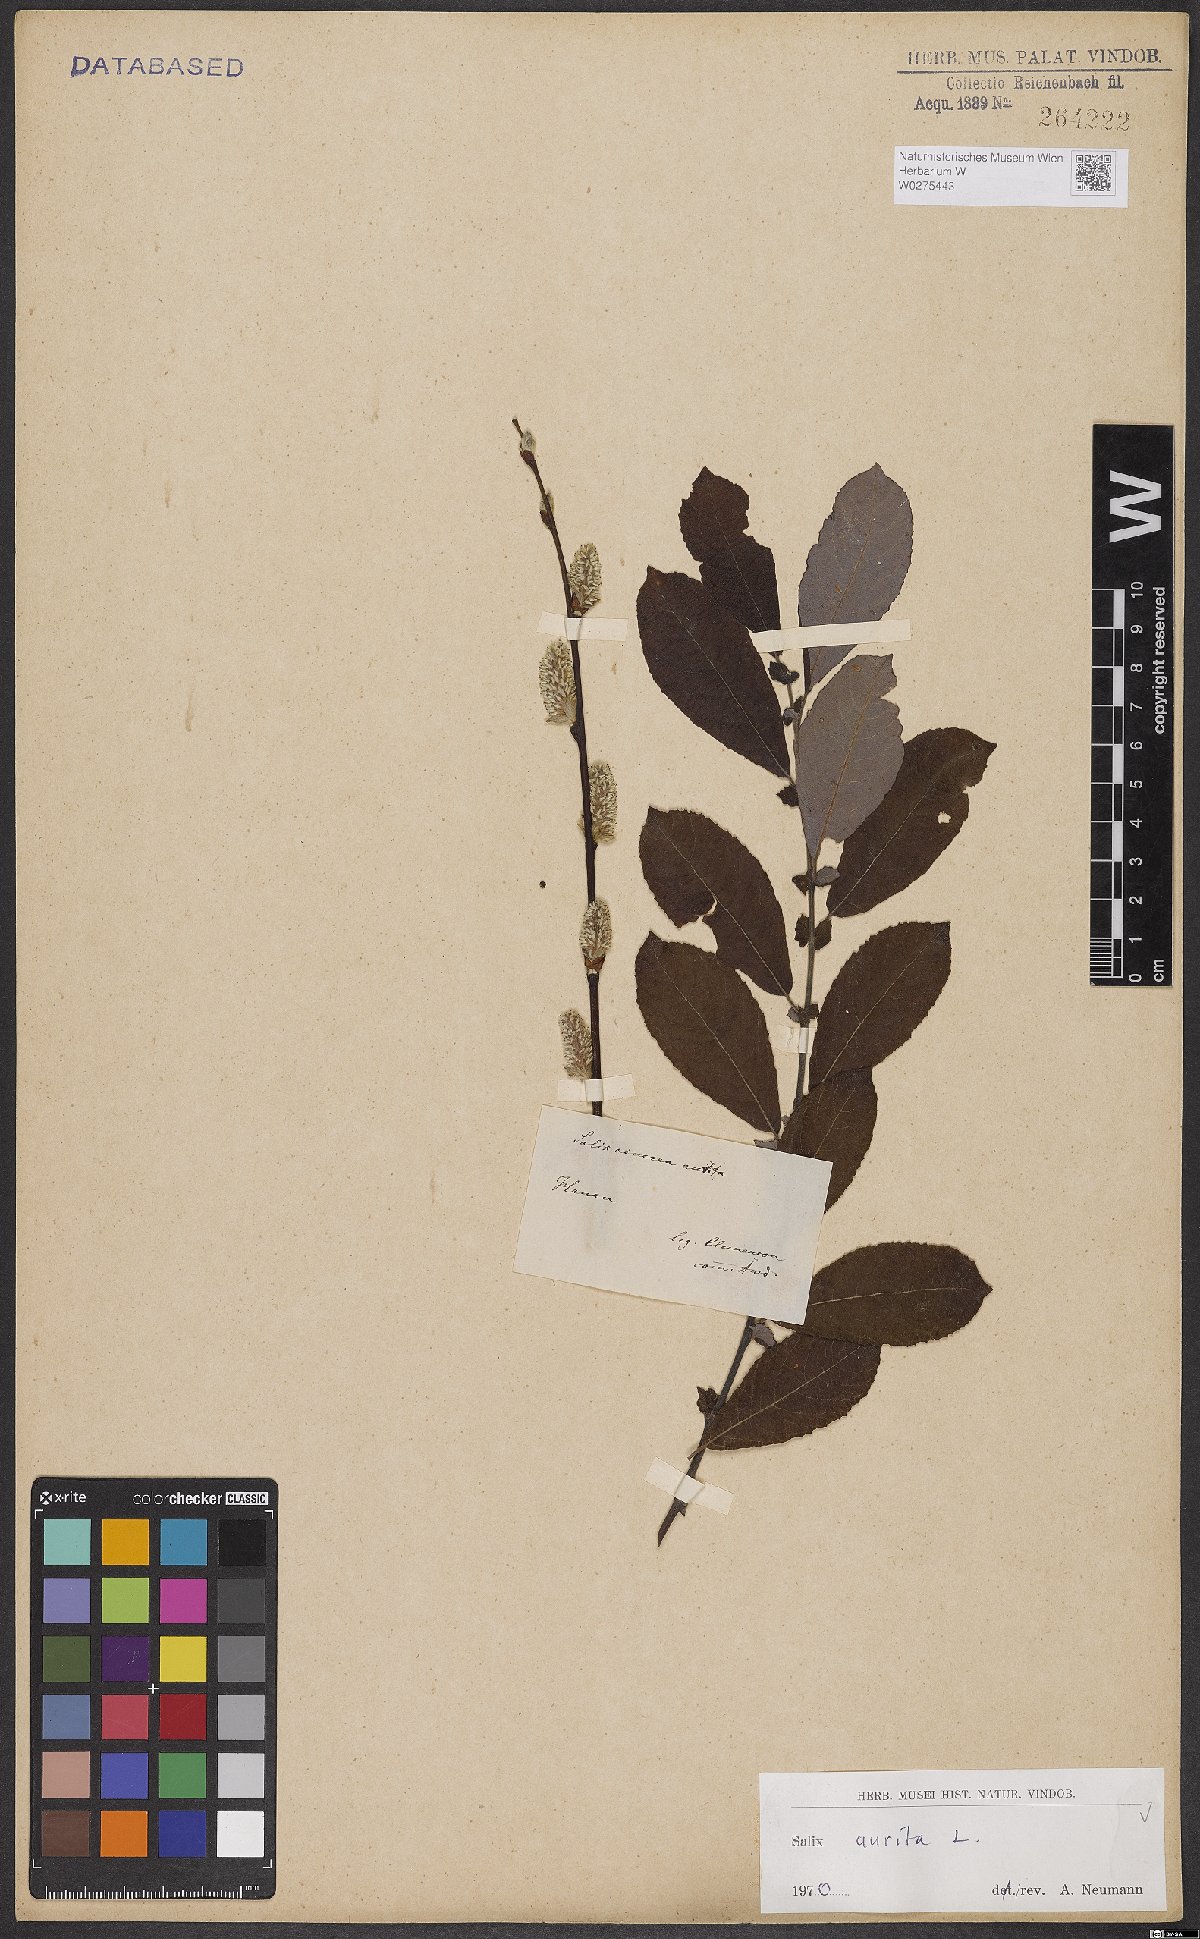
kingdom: Plantae
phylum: Tracheophyta
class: Magnoliopsida
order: Malpighiales
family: Salicaceae
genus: Salix
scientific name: Salix aurita
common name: Eared willow
